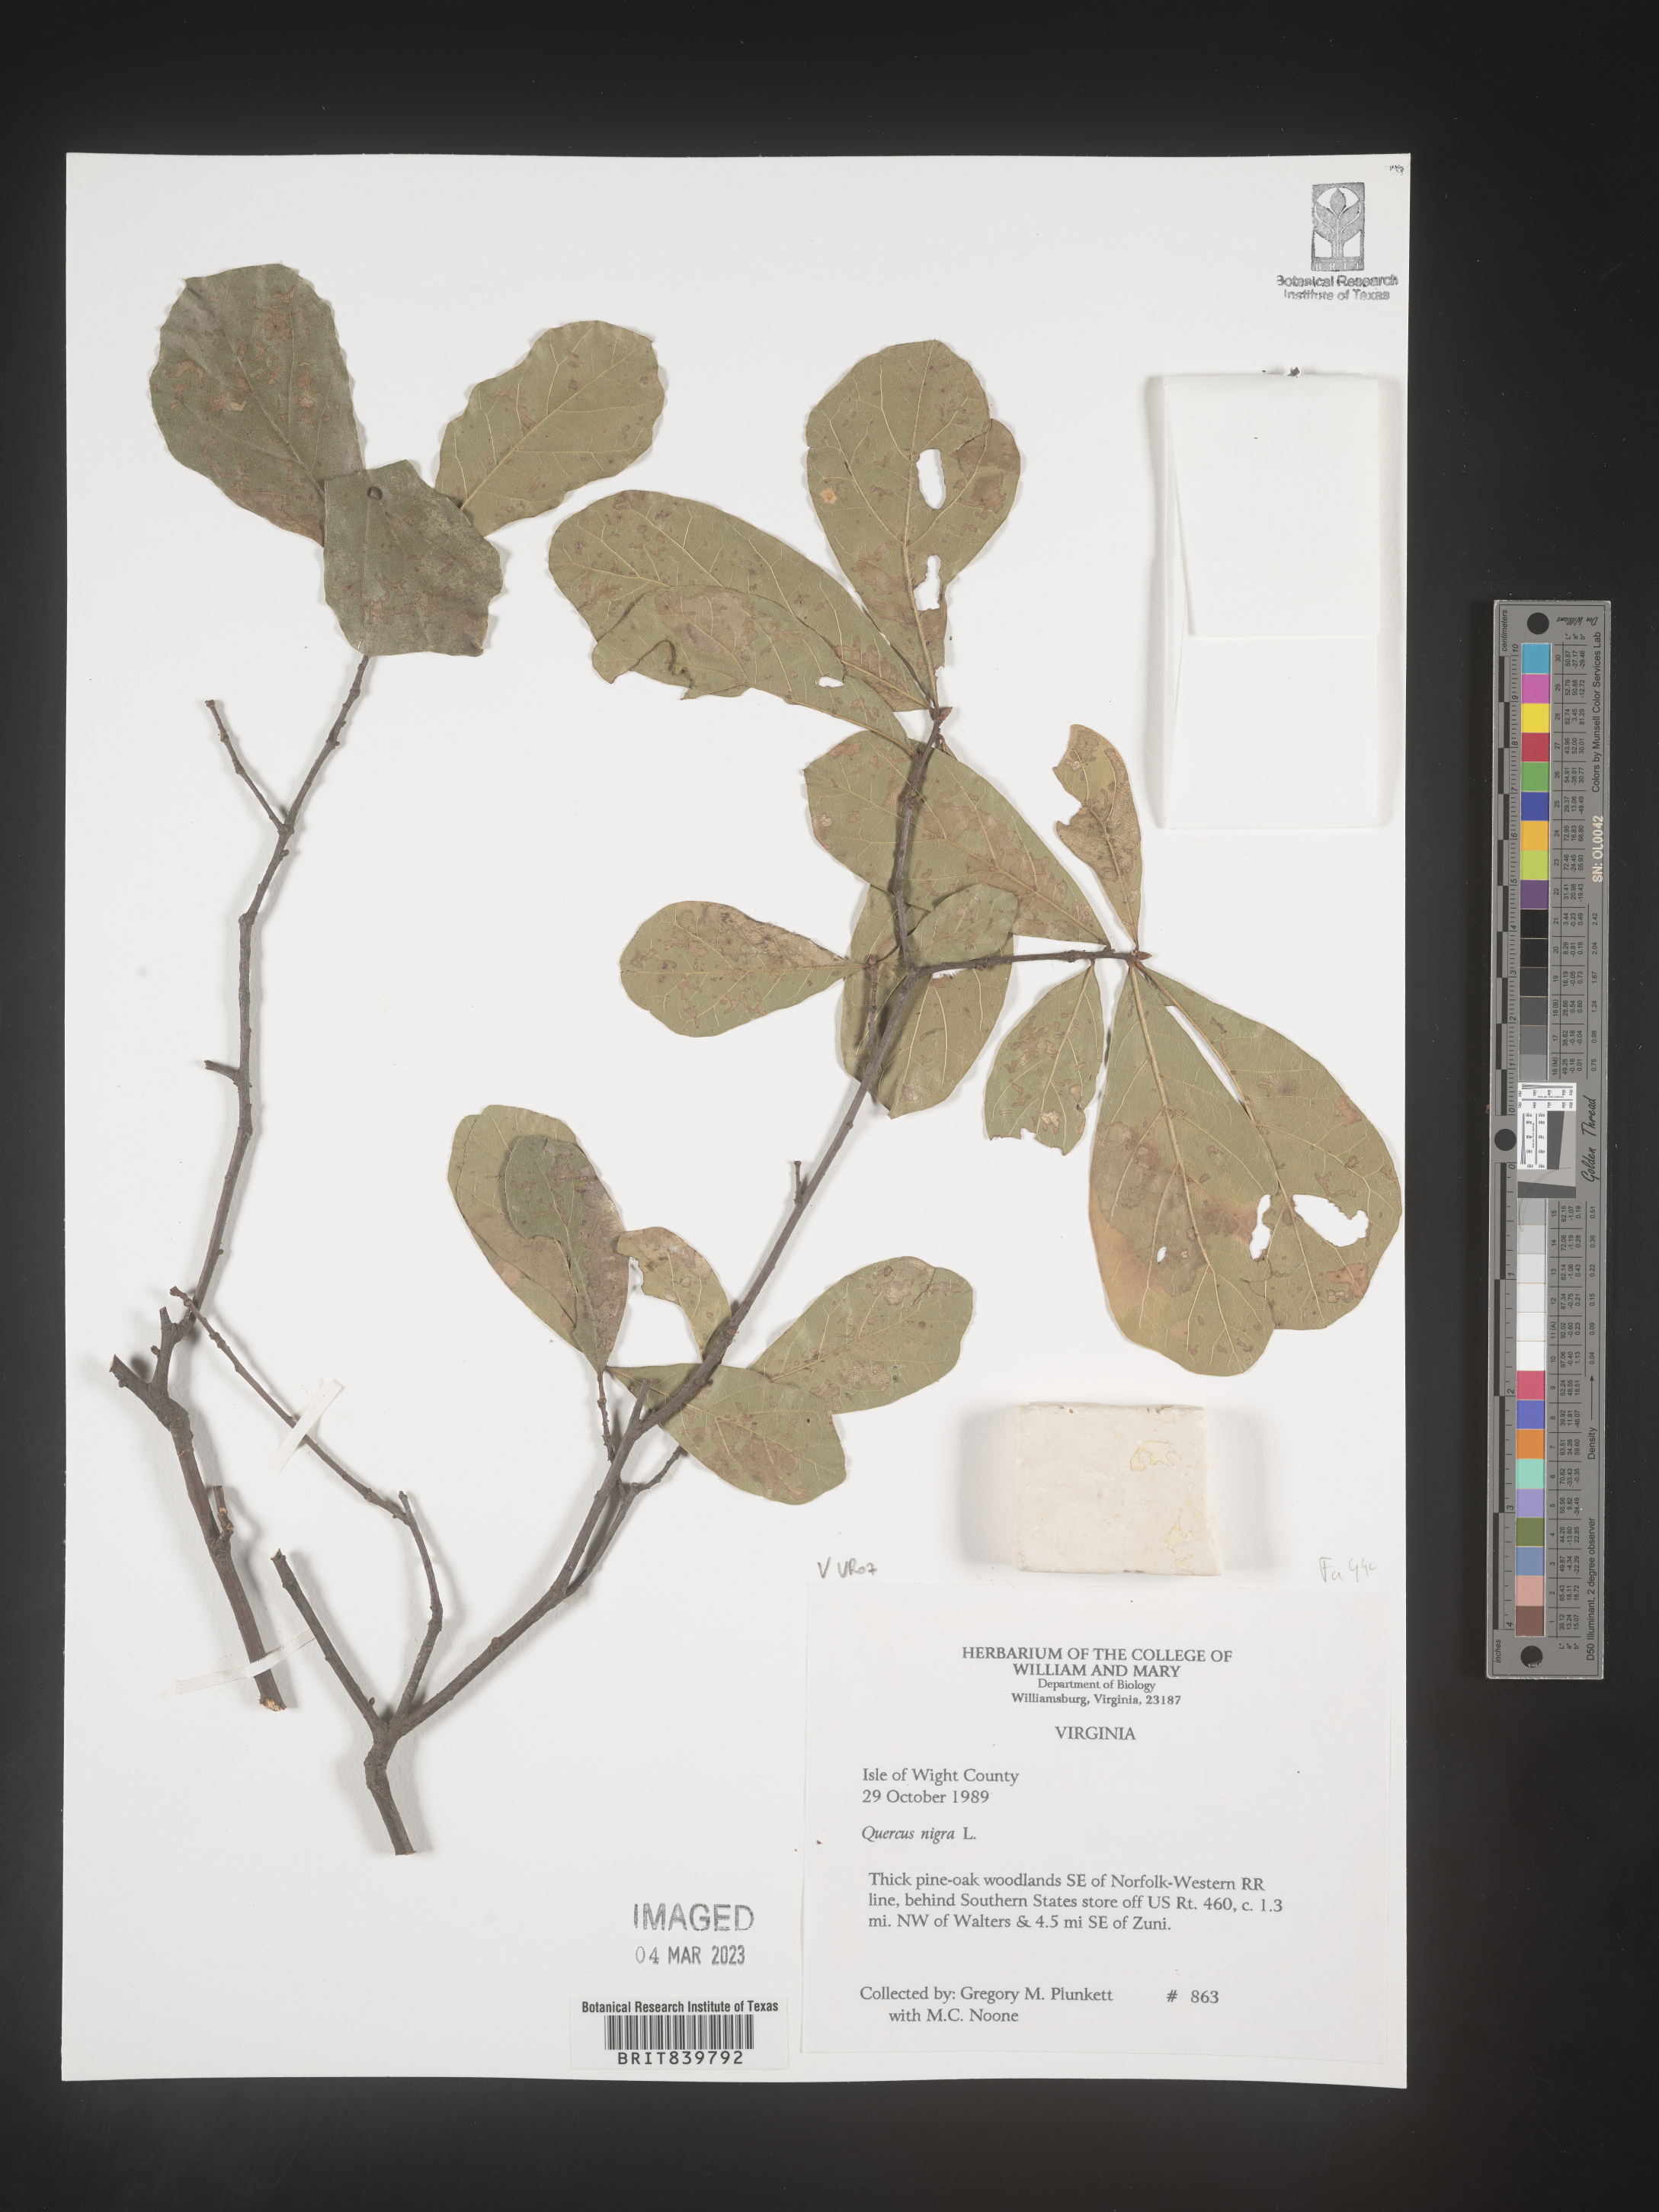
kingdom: Plantae
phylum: Tracheophyta
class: Magnoliopsida
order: Fagales
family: Fagaceae
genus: Quercus
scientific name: Quercus nigra
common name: Water oak
